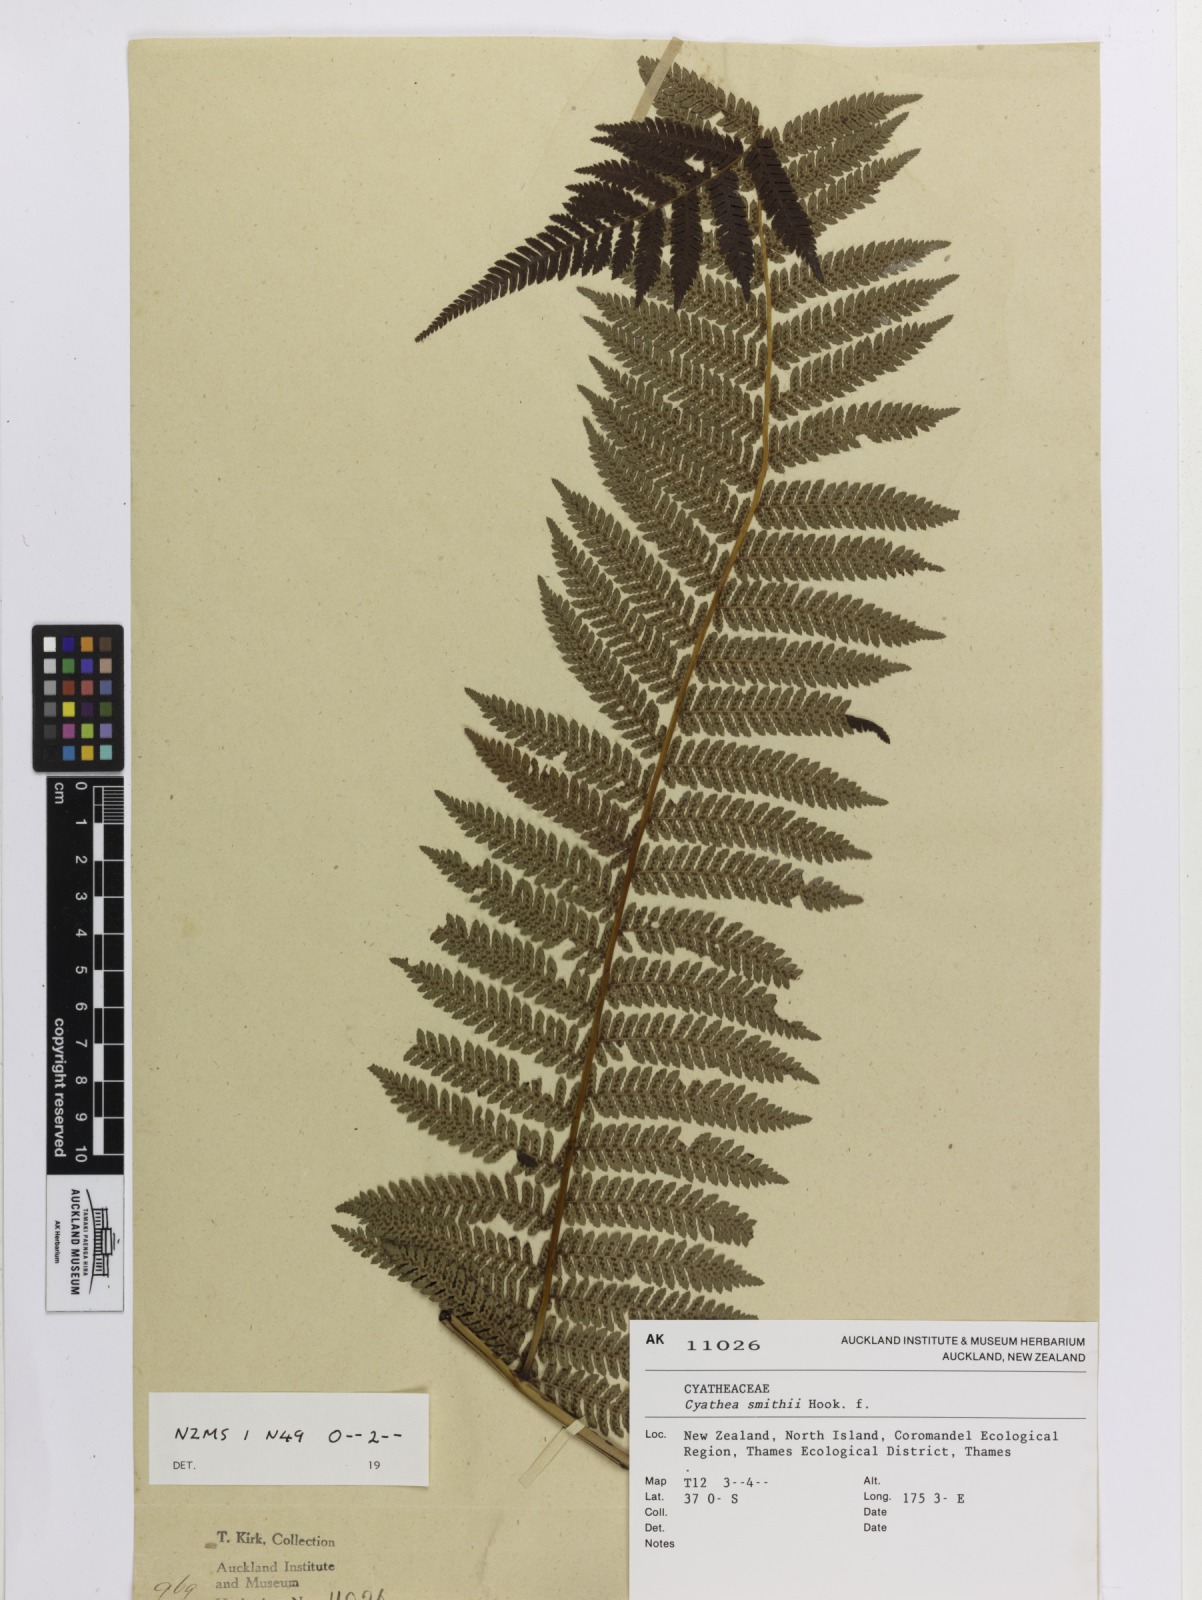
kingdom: Plantae
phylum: Tracheophyta
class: Polypodiopsida
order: Cyatheales
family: Cyatheaceae
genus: Alsophila
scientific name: Alsophila smithii
